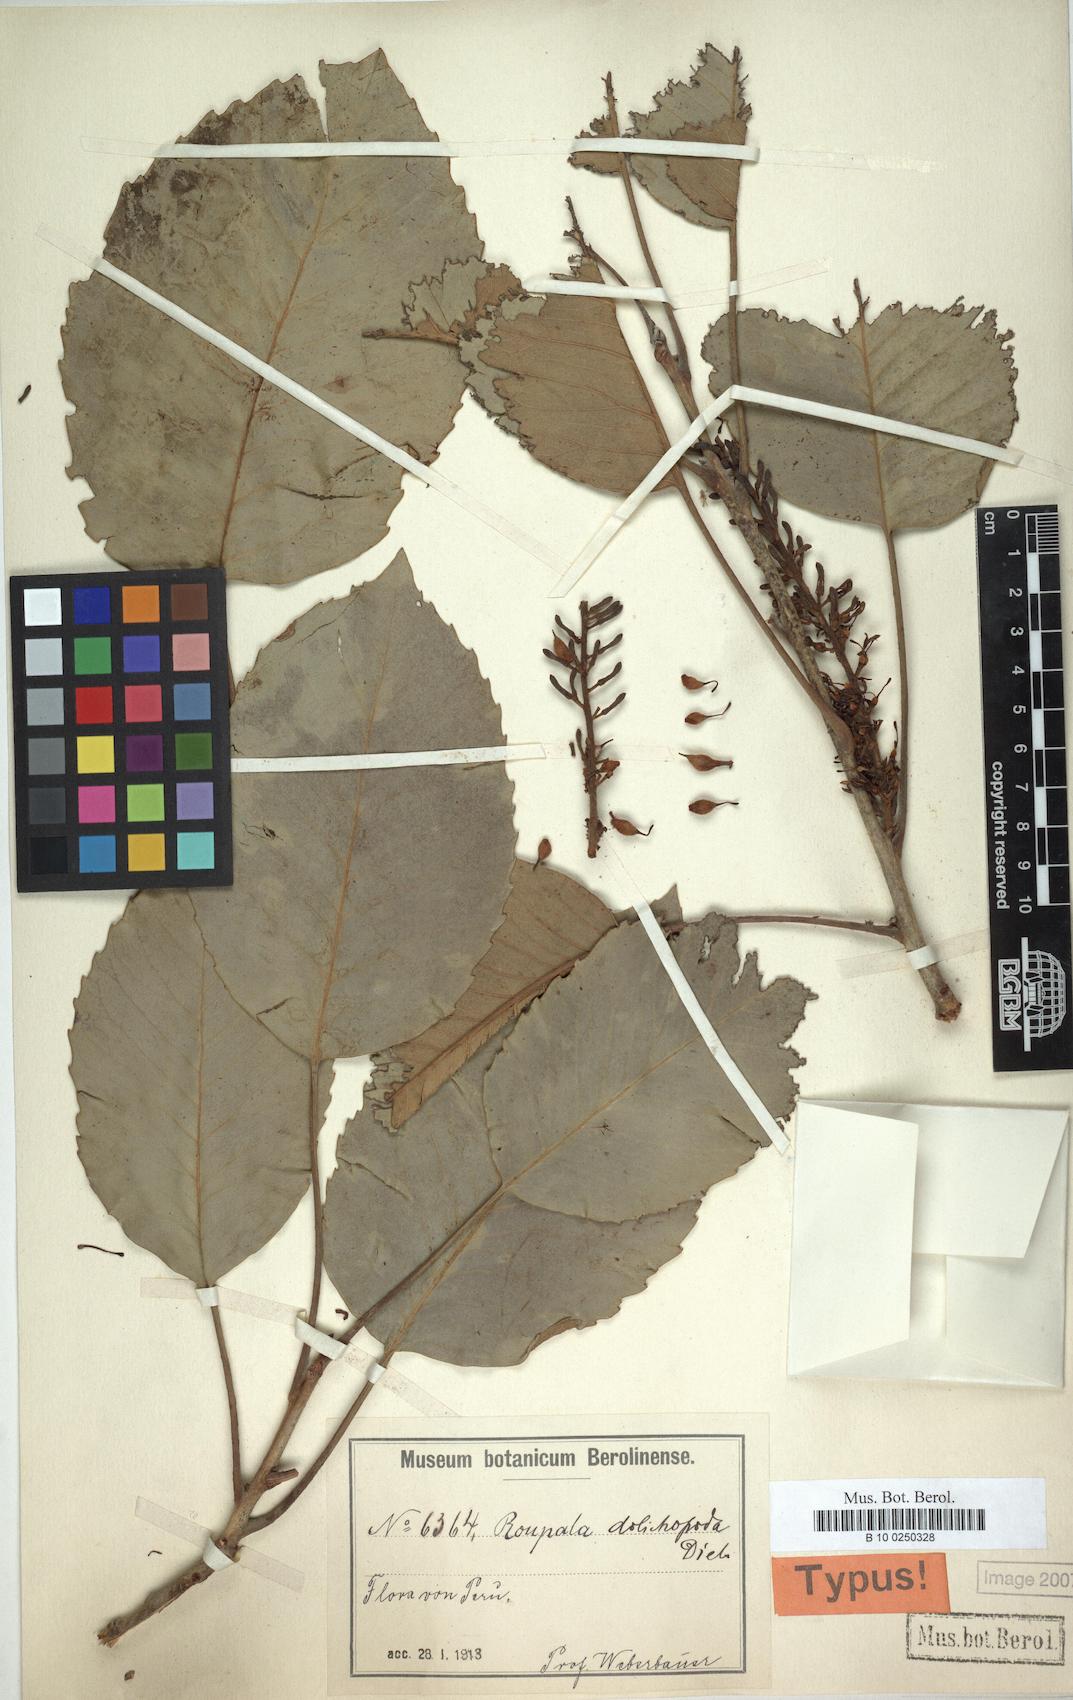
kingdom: Plantae
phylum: Tracheophyta
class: Magnoliopsida
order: Proteales
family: Proteaceae
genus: Roupala
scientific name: Roupala monosperma
